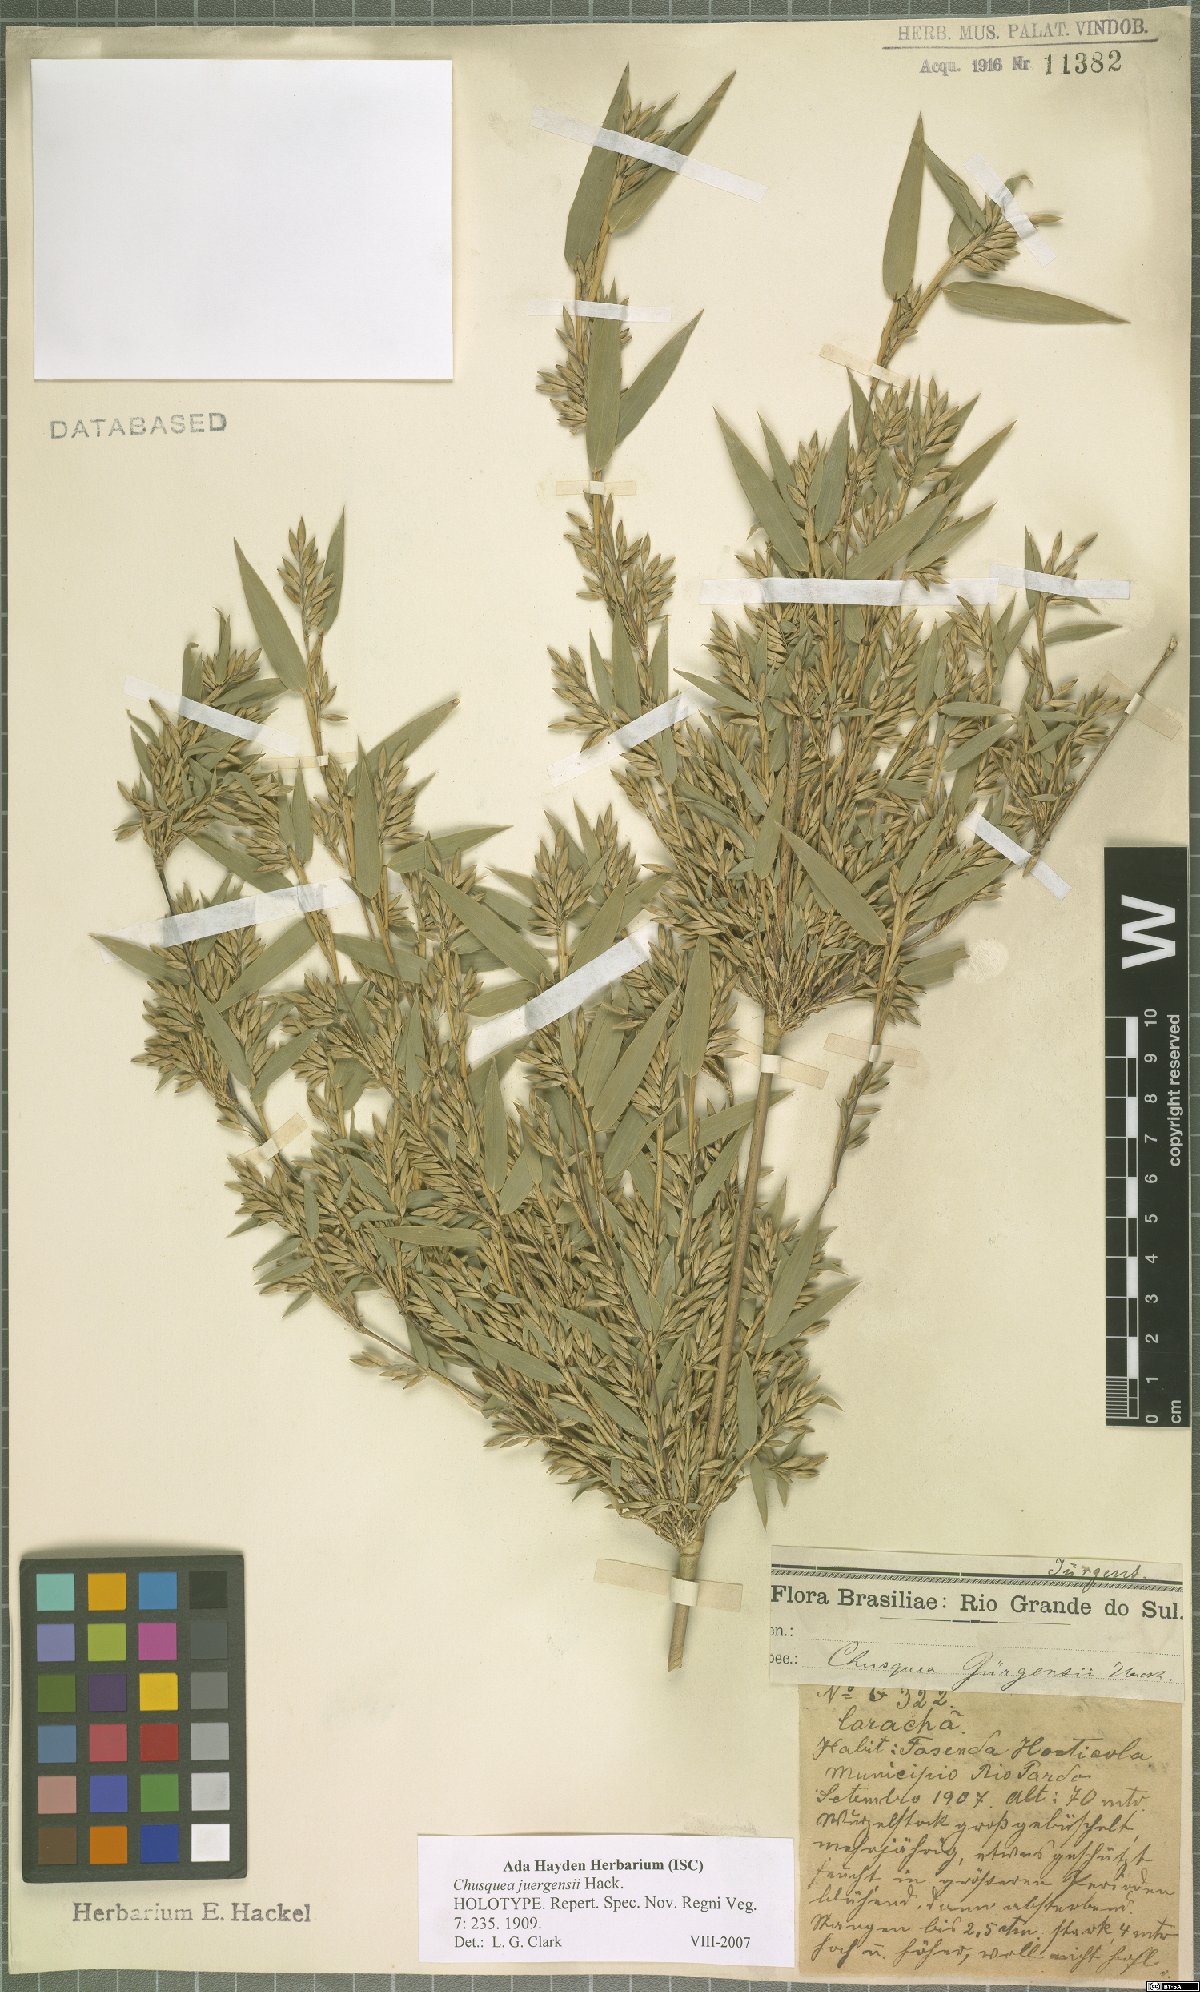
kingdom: Plantae
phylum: Tracheophyta
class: Liliopsida
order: Poales
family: Poaceae
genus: Chusquea
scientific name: Chusquea juergensii
